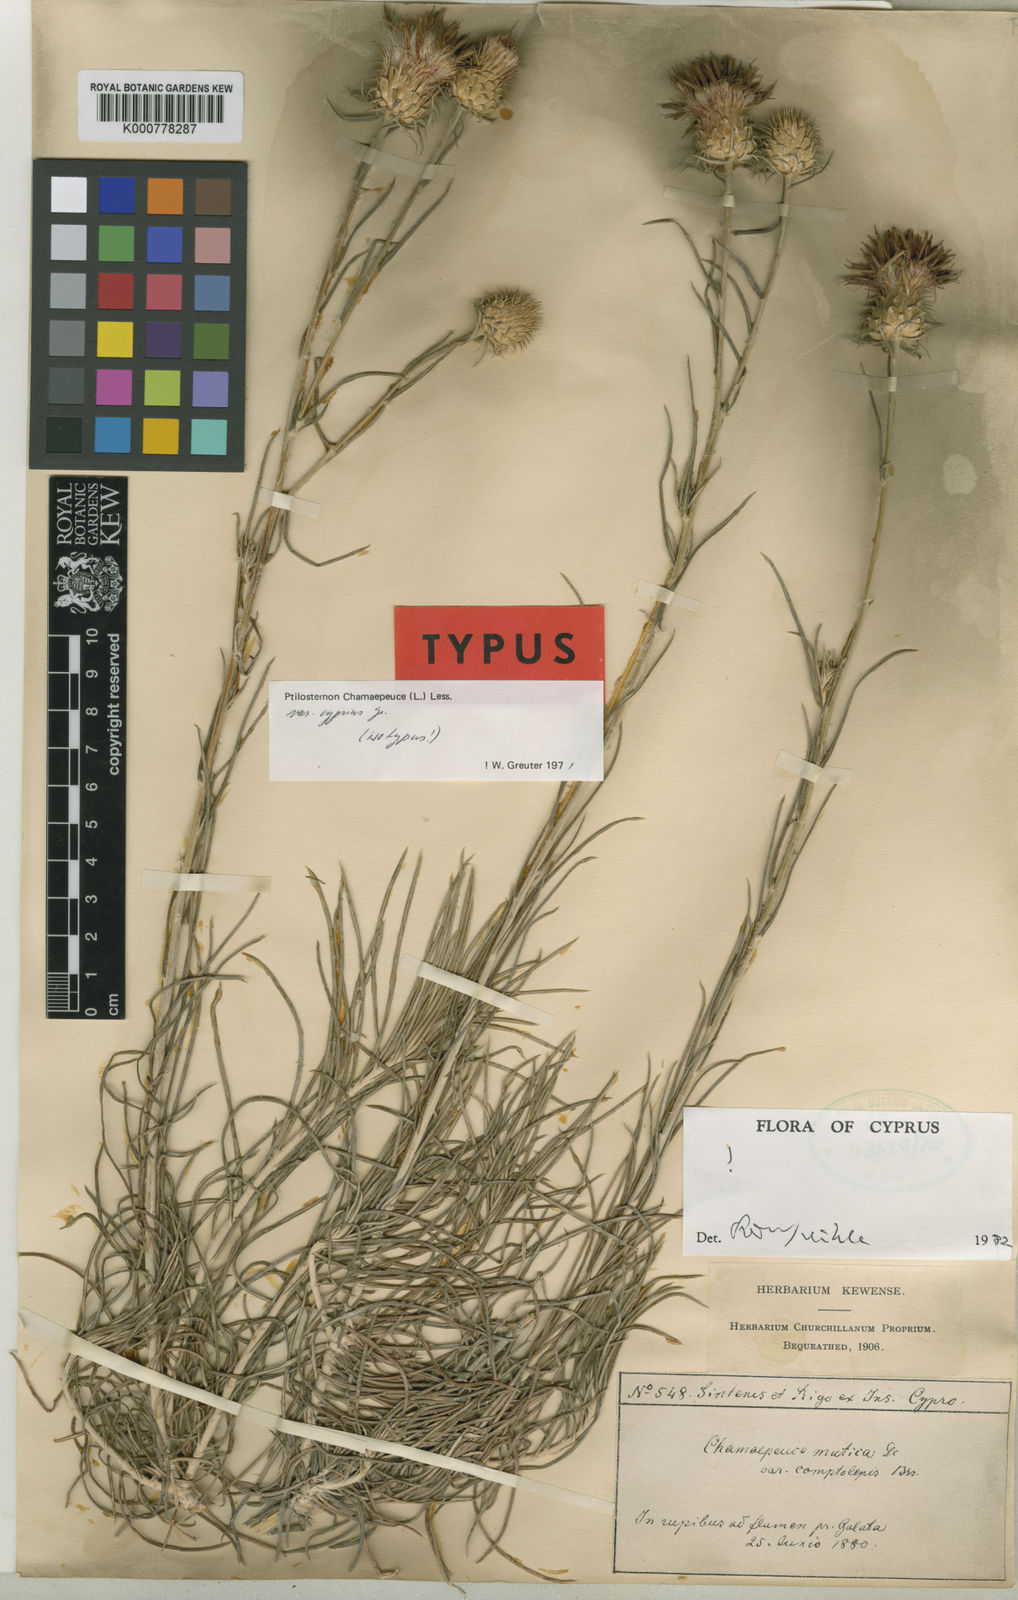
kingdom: Plantae
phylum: Tracheophyta
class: Magnoliopsida
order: Asterales
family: Asteraceae
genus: Ptilostemon
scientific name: Ptilostemon chamaepeuce
